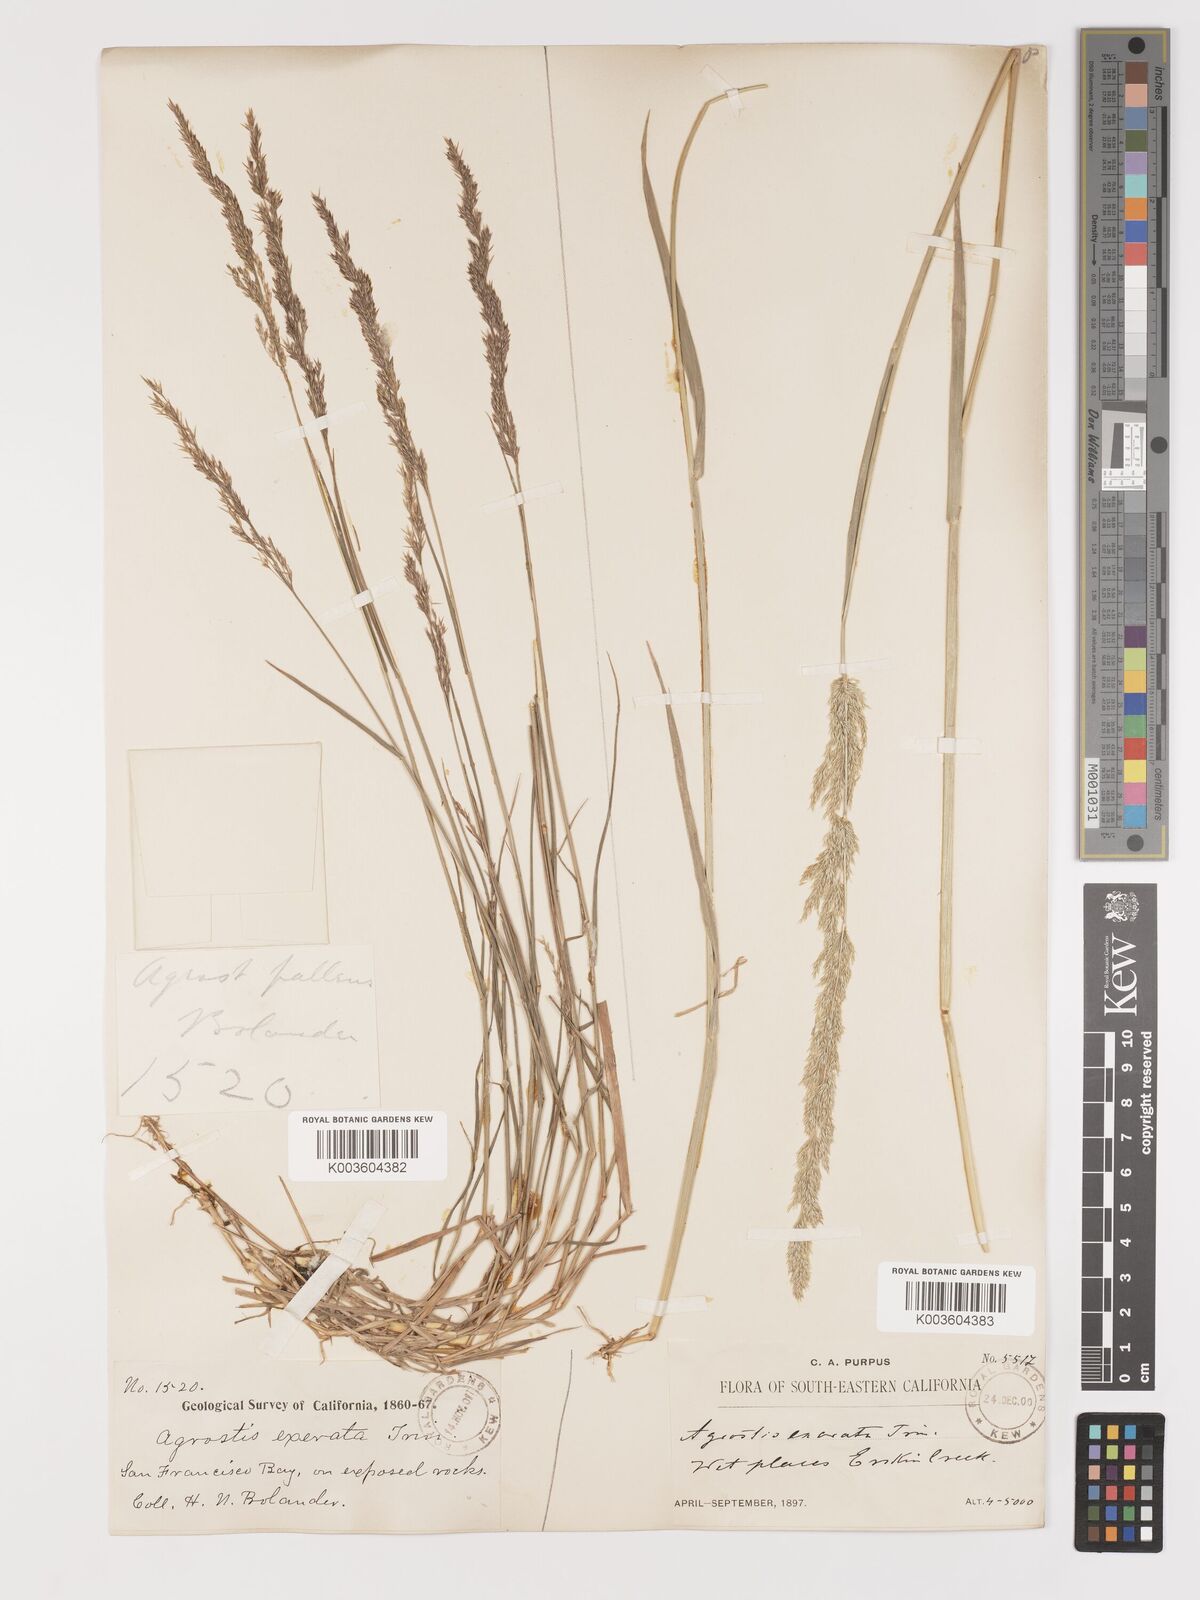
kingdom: Plantae
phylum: Tracheophyta
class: Liliopsida
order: Poales
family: Poaceae
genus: Agrostis
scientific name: Agrostis exarata
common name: Spike bent
